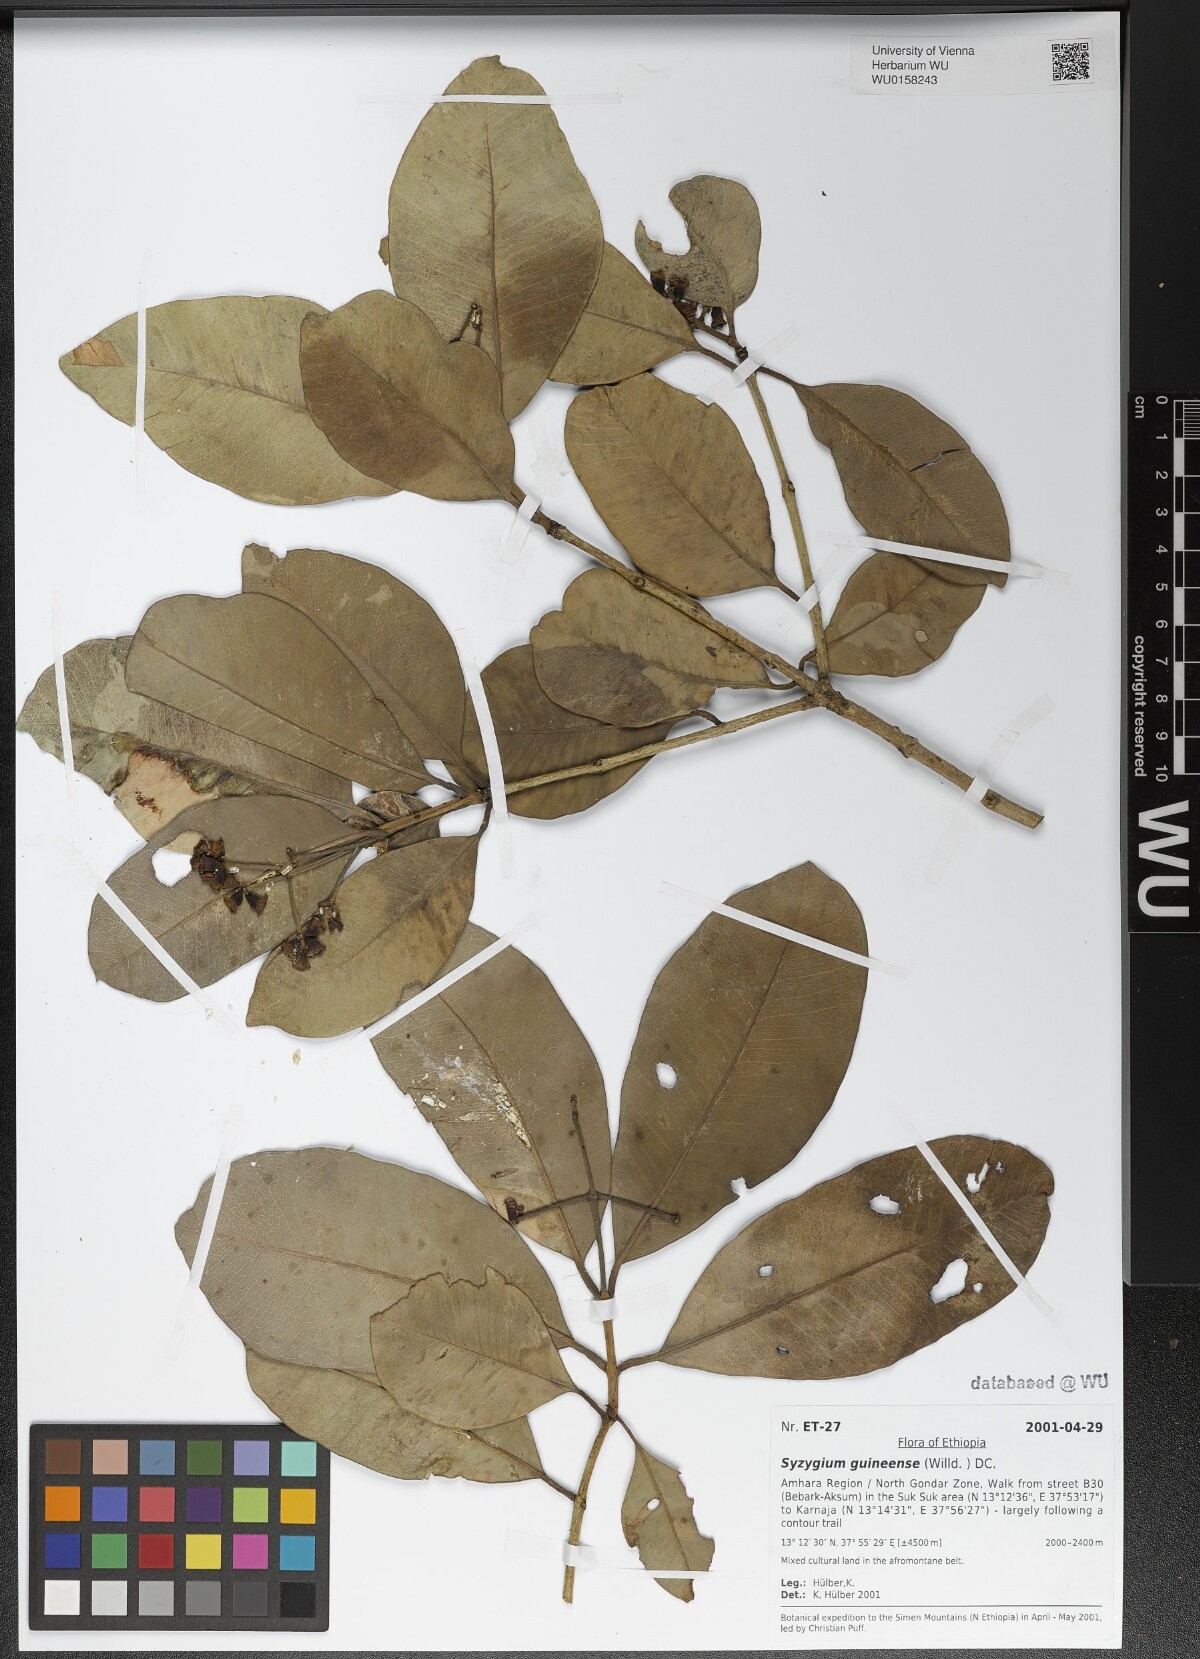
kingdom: Plantae
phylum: Tracheophyta
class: Magnoliopsida
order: Myrtales
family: Myrtaceae
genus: Syzygium
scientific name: Syzygium guineense
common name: Water-pear
